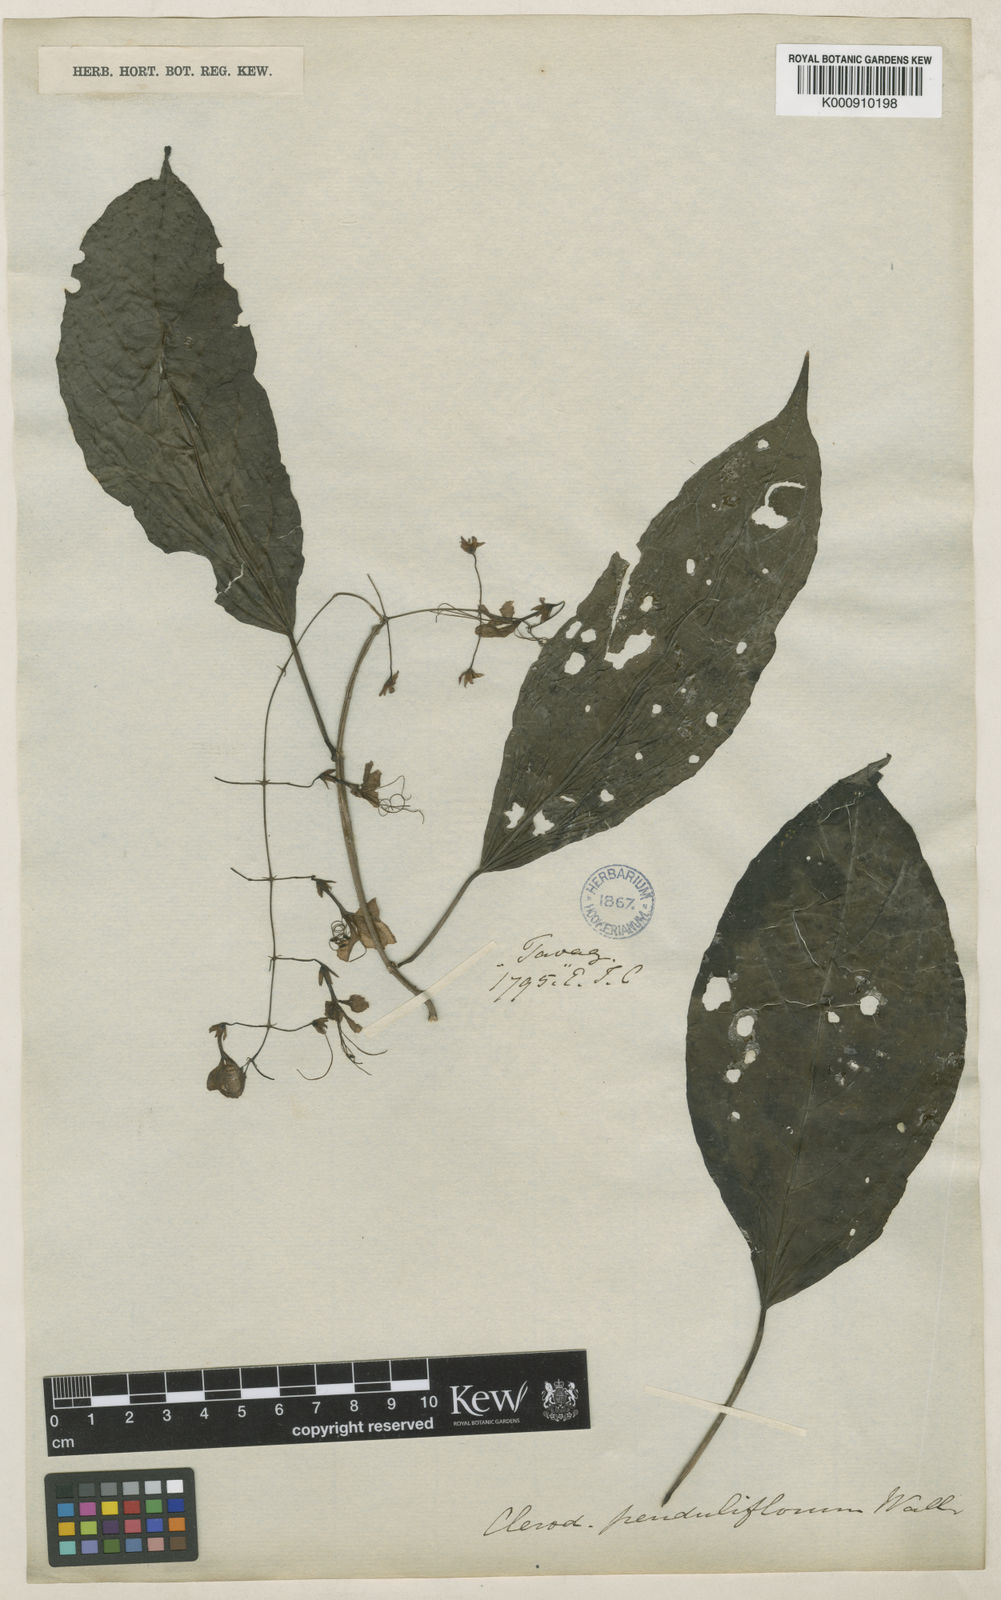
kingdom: Plantae
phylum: Tracheophyta
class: Magnoliopsida
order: Lamiales
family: Lamiaceae
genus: Clerodendrum
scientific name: Clerodendrum
